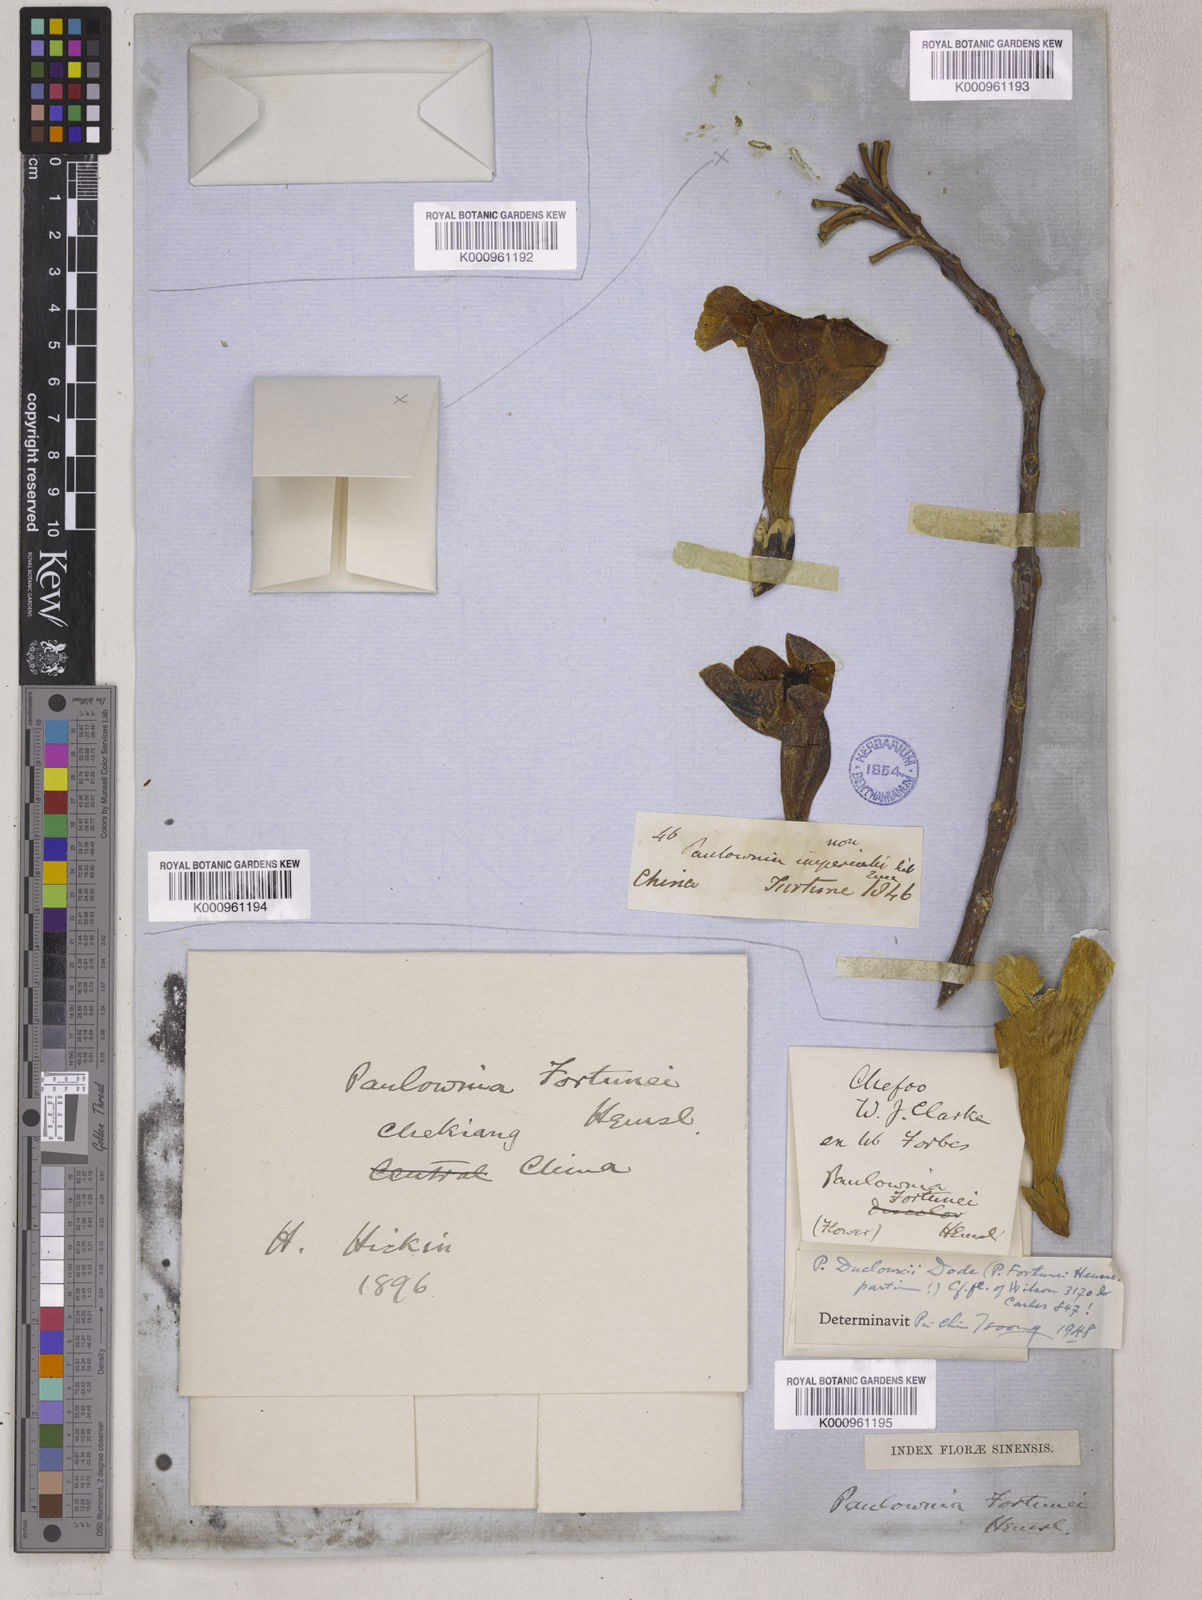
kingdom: Plantae
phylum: Tracheophyta
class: Magnoliopsida
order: Lamiales
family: Paulowniaceae
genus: Paulownia
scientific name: Paulownia fortunei
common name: Dragontree
